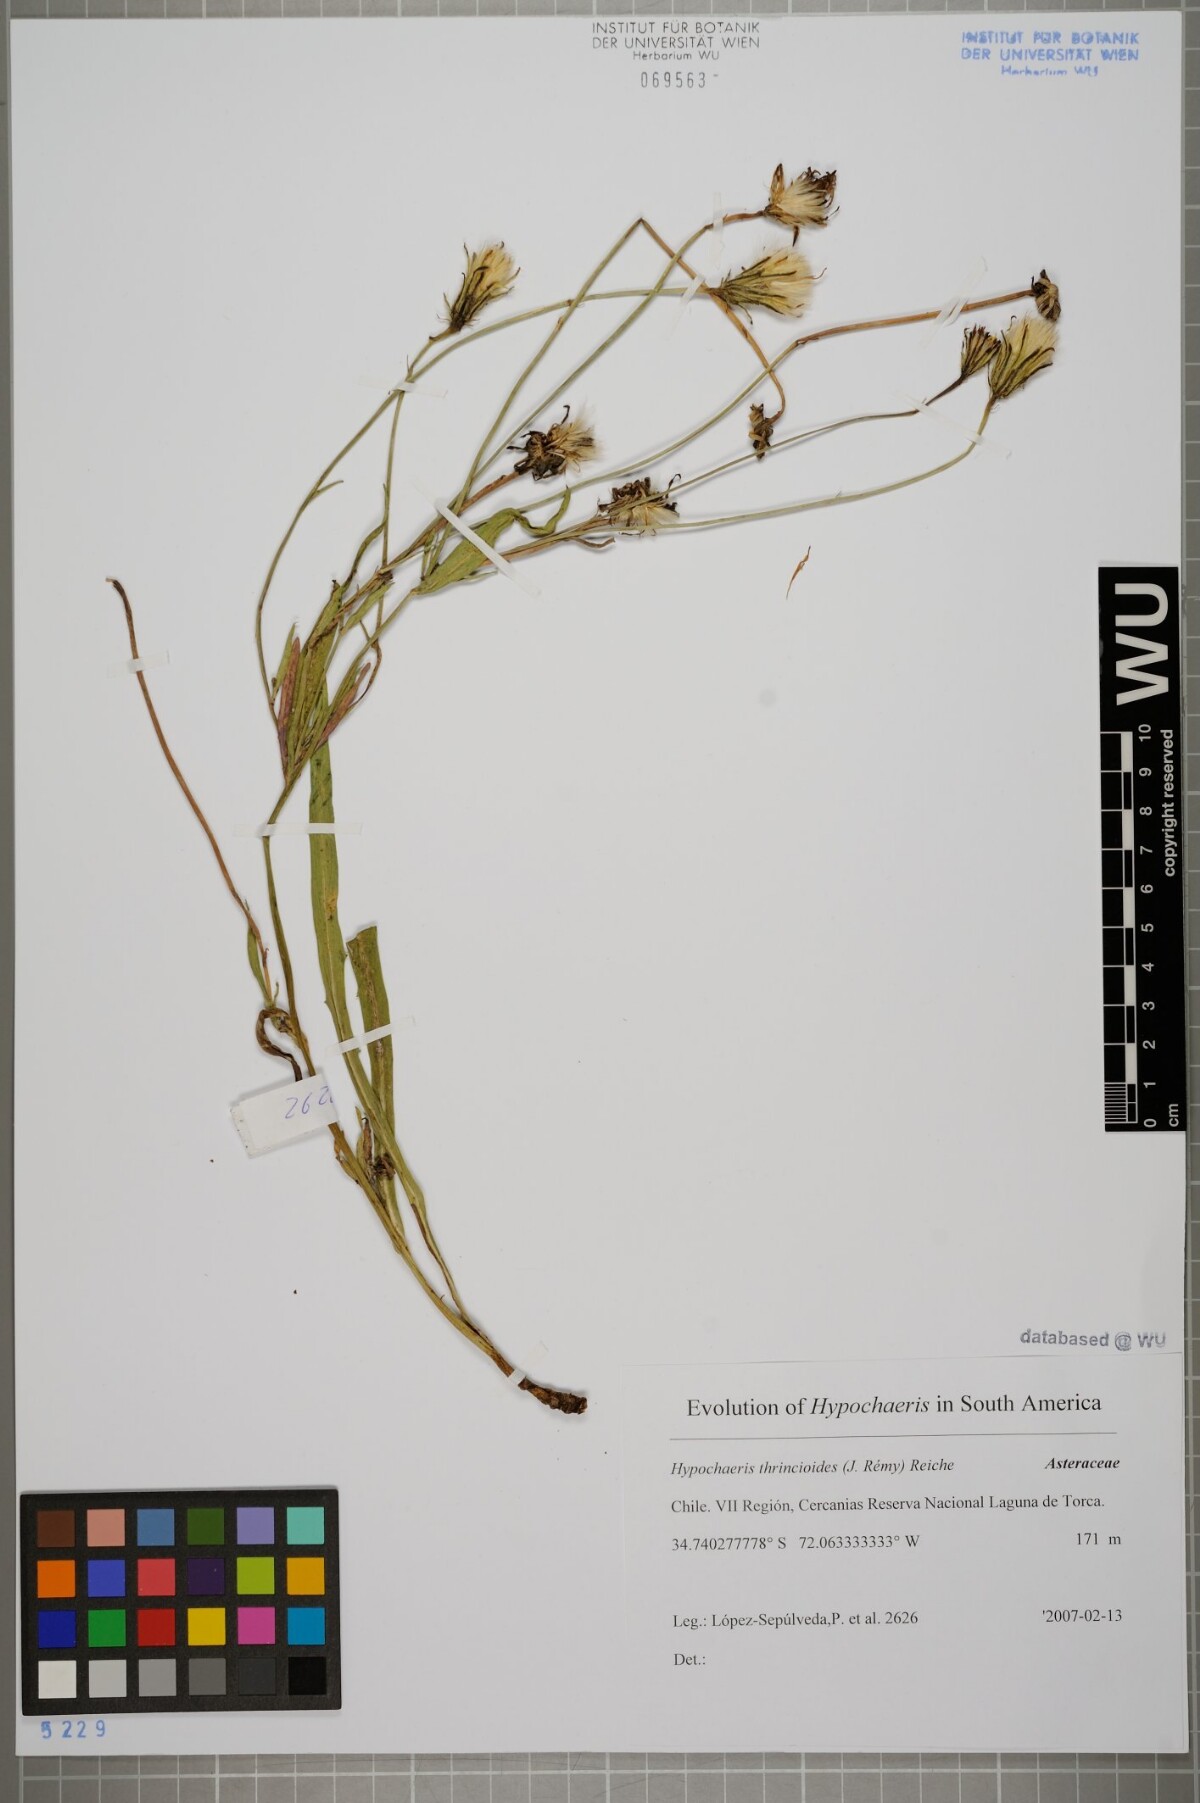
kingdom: Plantae
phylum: Tracheophyta
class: Magnoliopsida
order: Asterales
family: Asteraceae
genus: Hypochaeris
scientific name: Hypochaeris apargioides
